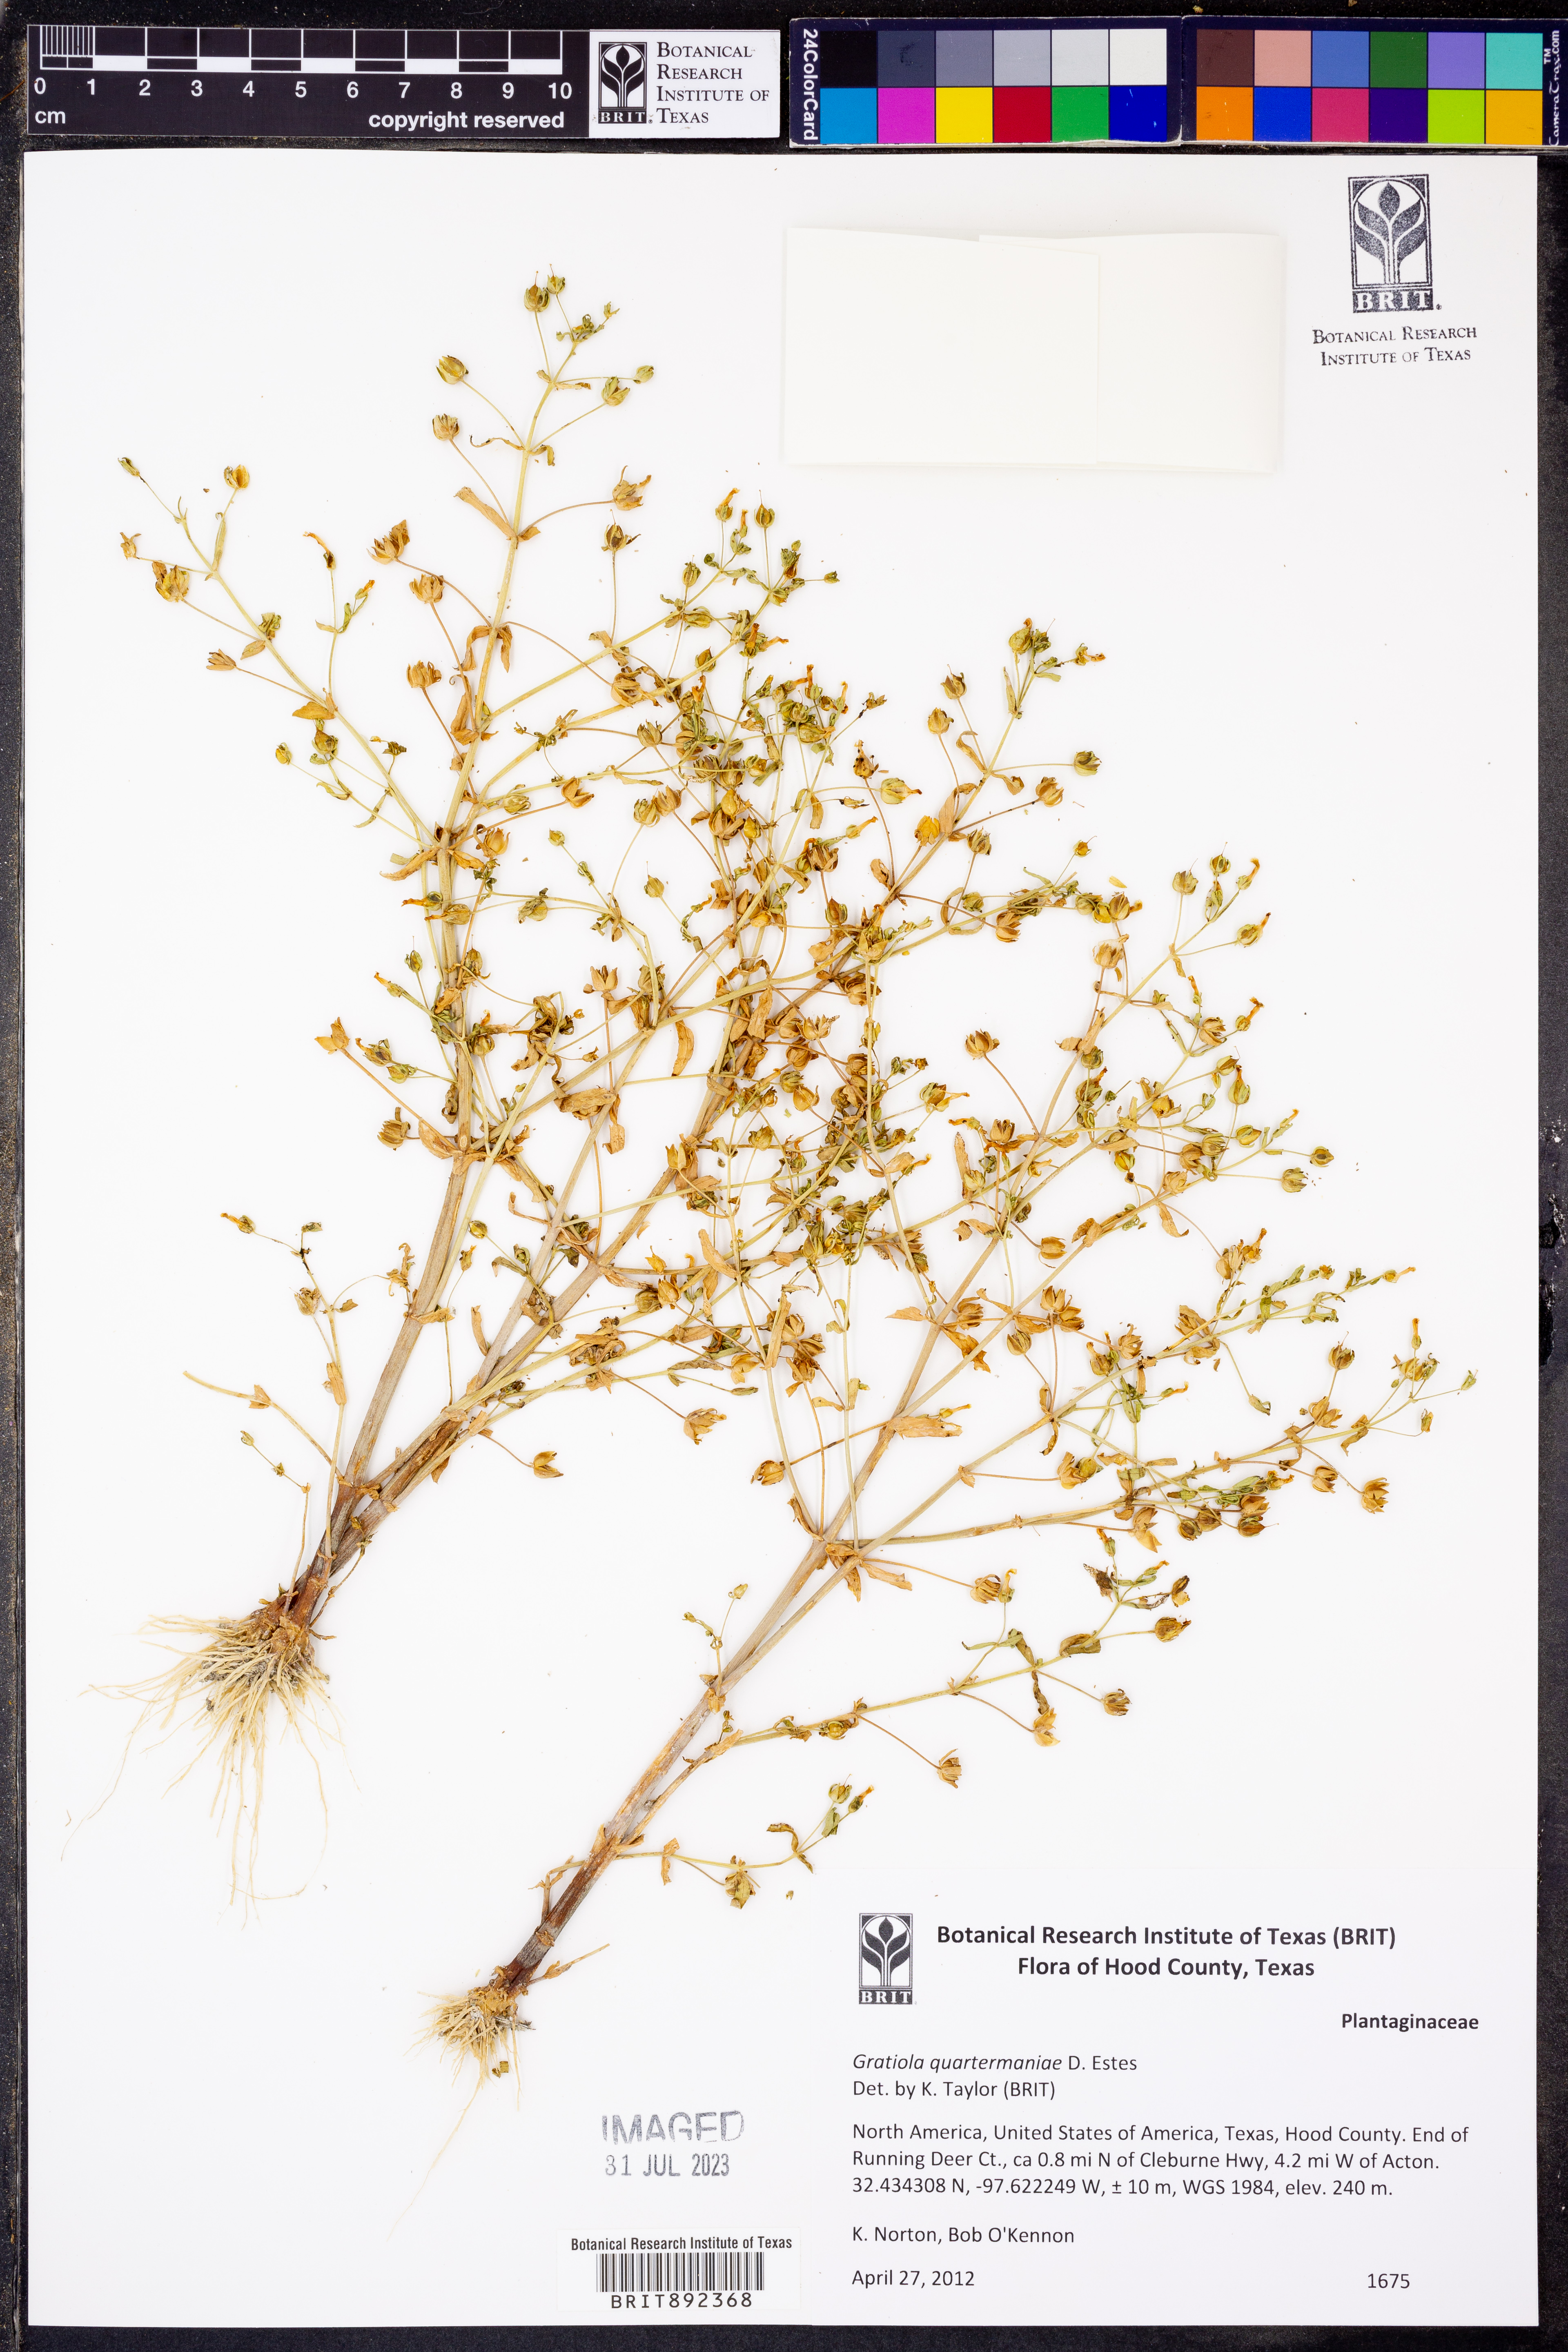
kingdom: Plantae
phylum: Tracheophyta
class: Magnoliopsida
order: Lamiales
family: Plantaginaceae
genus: Gratiola
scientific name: Gratiola quartermaniae
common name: Quarterman's hedge-hyssop
